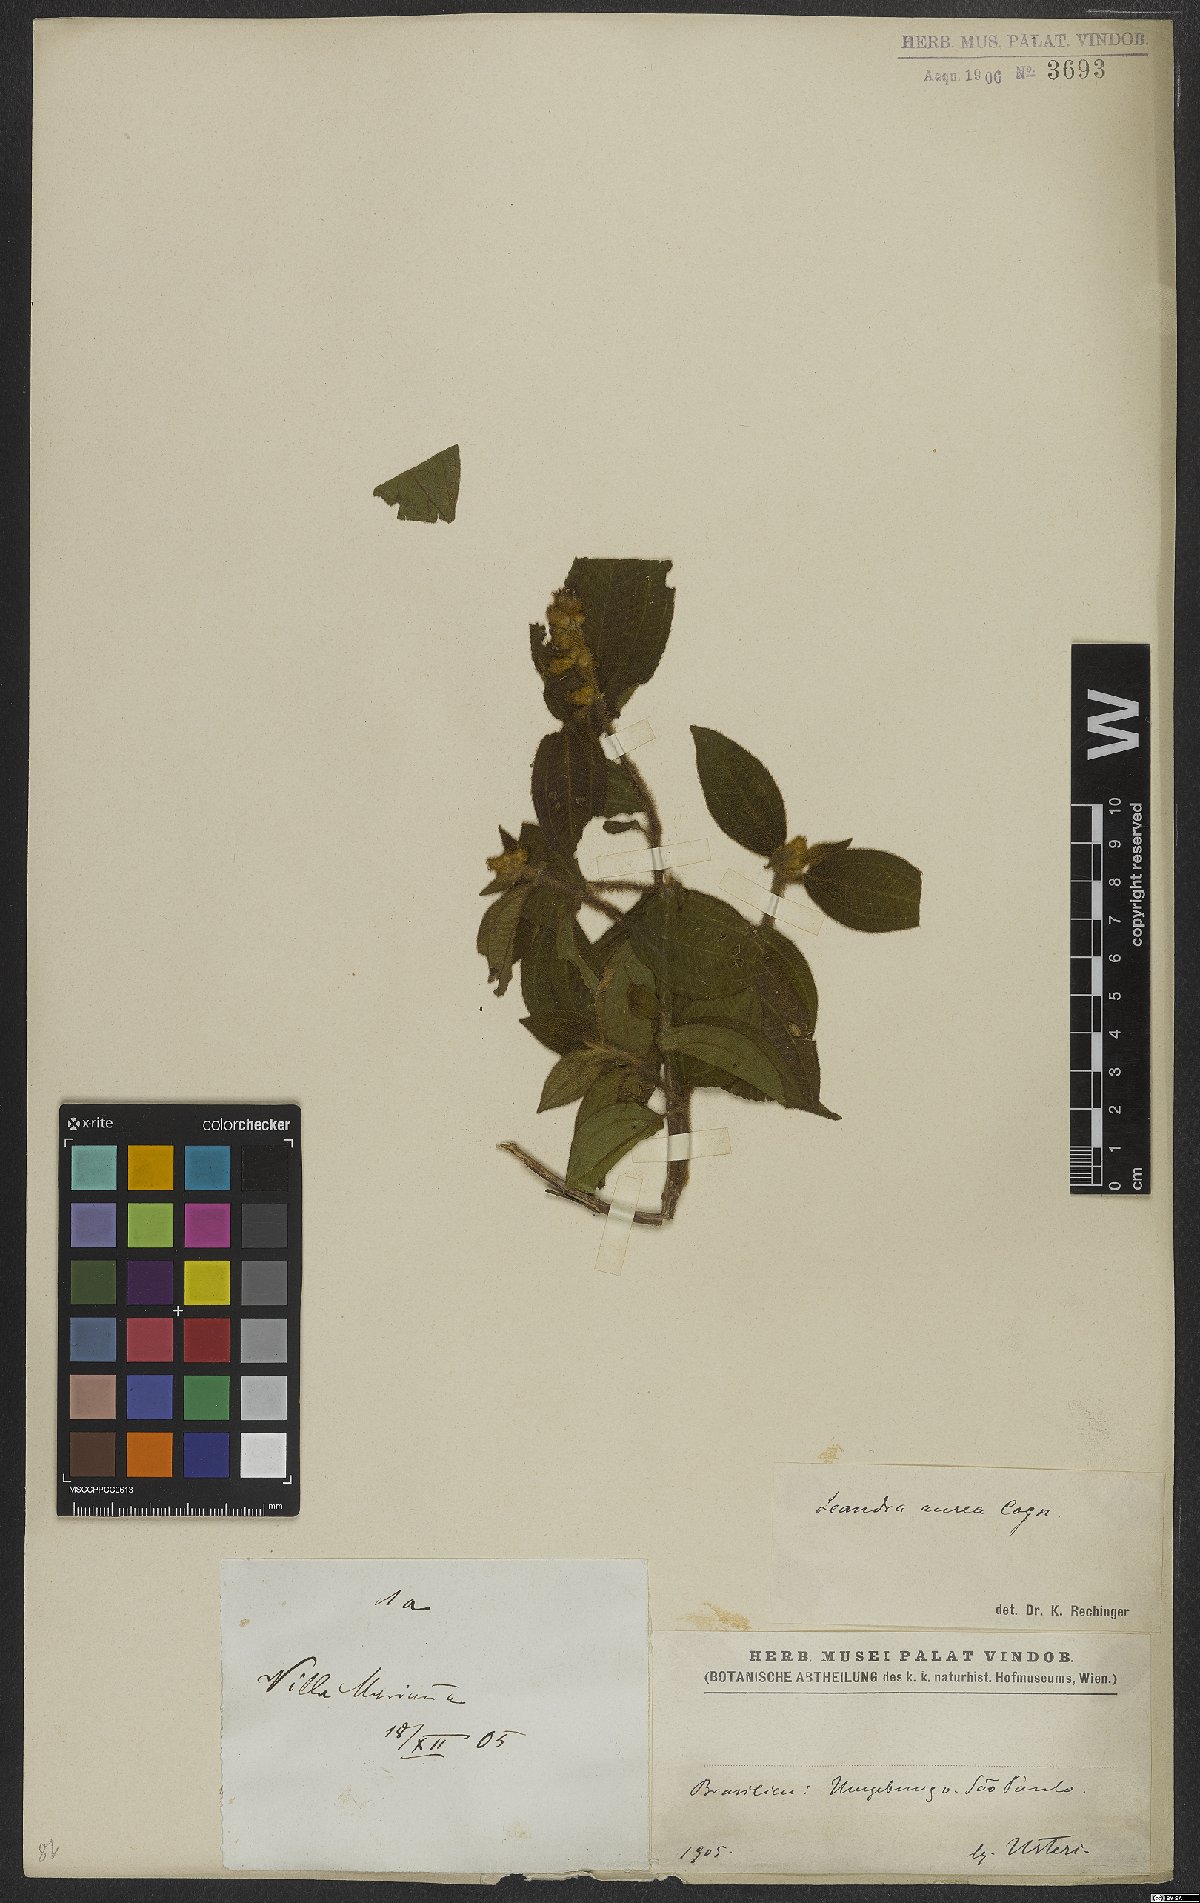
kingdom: Plantae
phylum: Tracheophyta
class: Magnoliopsida
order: Myrtales
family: Melastomataceae
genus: Miconia
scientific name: Miconia auricoma
